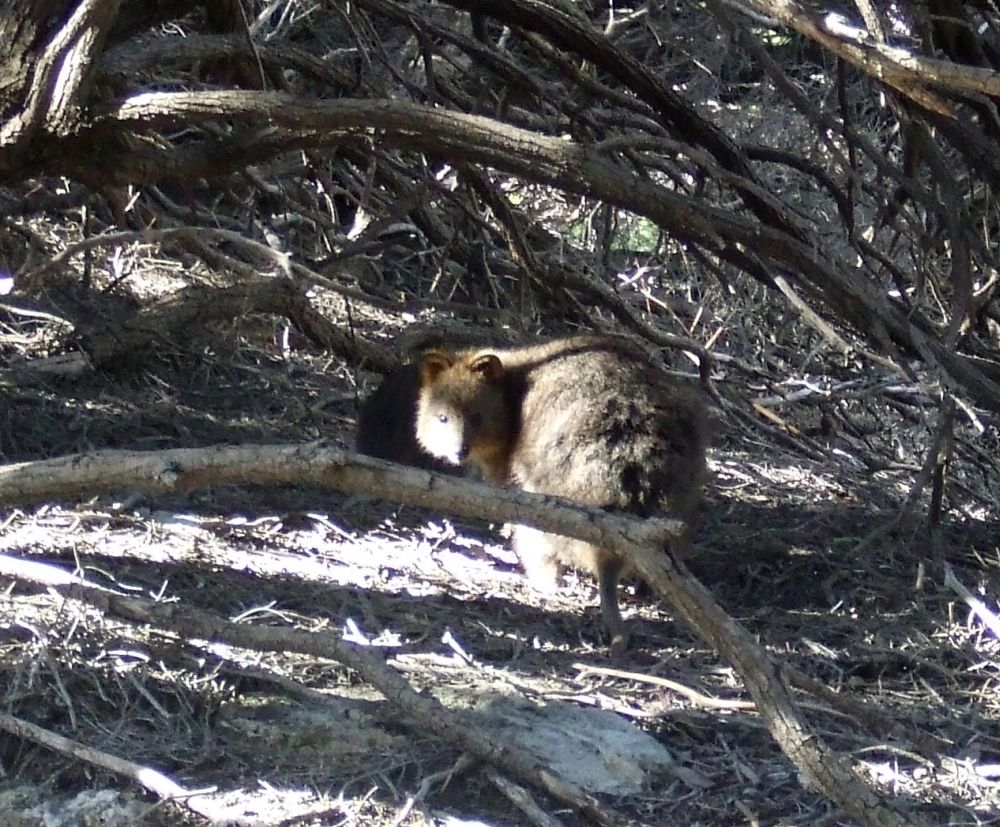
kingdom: Animalia
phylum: Chordata
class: Mammalia
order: Diprotodontia
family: Macropodidae
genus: Setonix
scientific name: Setonix brachyurus
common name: Quokka
